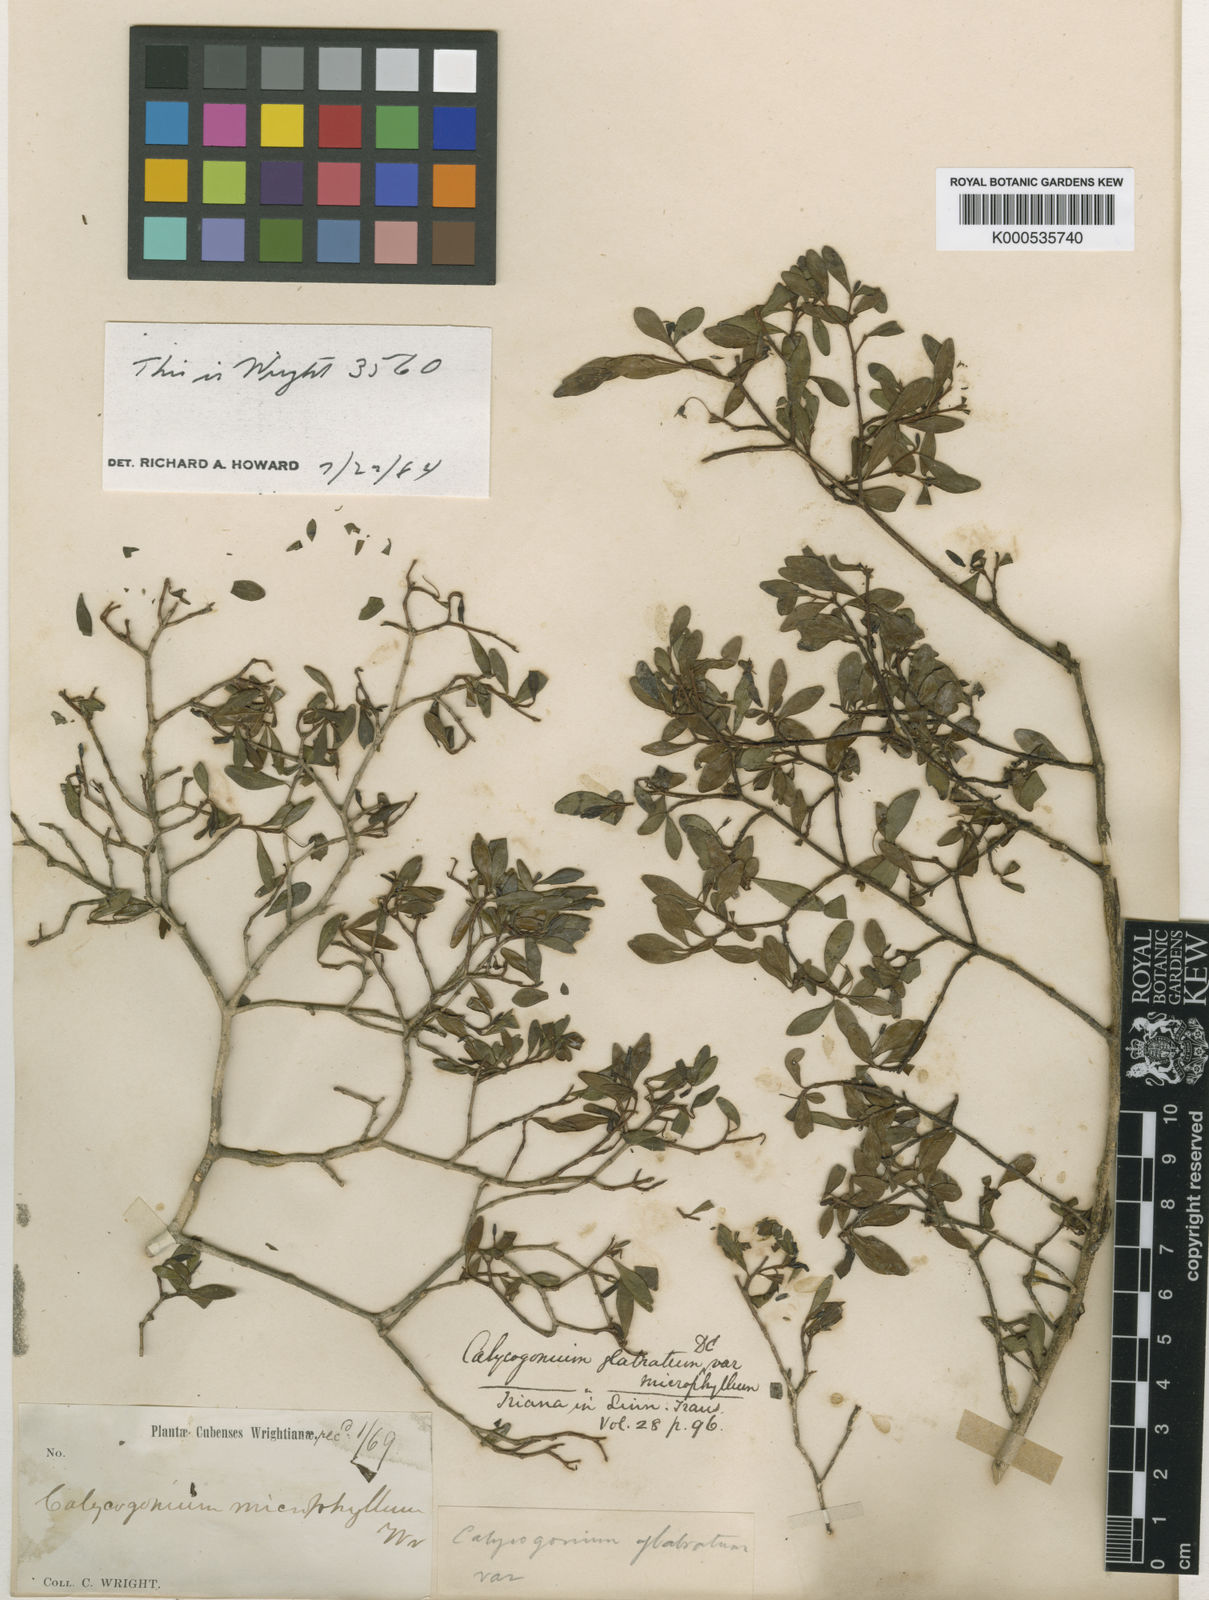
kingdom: Plantae
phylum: Tracheophyta
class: Magnoliopsida
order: Myrtales
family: Melastomataceae
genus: Miconia
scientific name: Miconia
